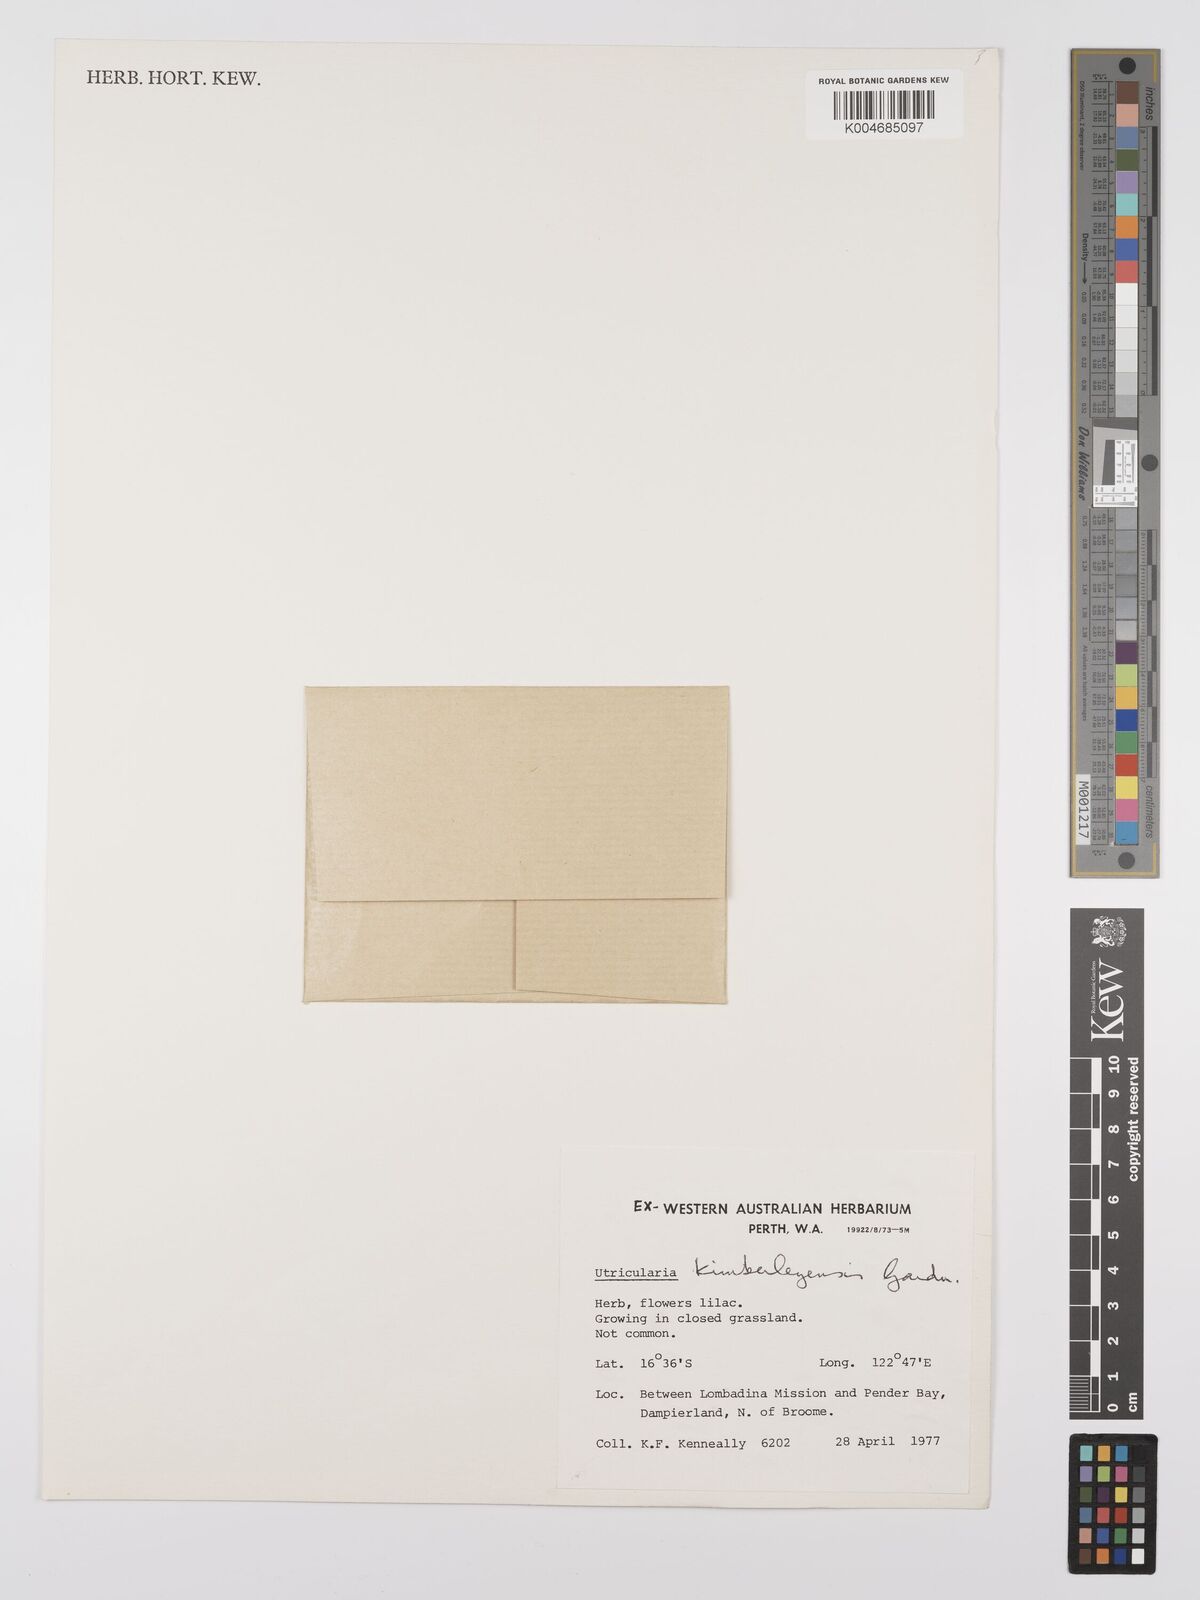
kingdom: Plantae
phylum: Tracheophyta
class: Magnoliopsida
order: Lamiales
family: Lentibulariaceae
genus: Utricularia
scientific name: Utricularia dichotoma
